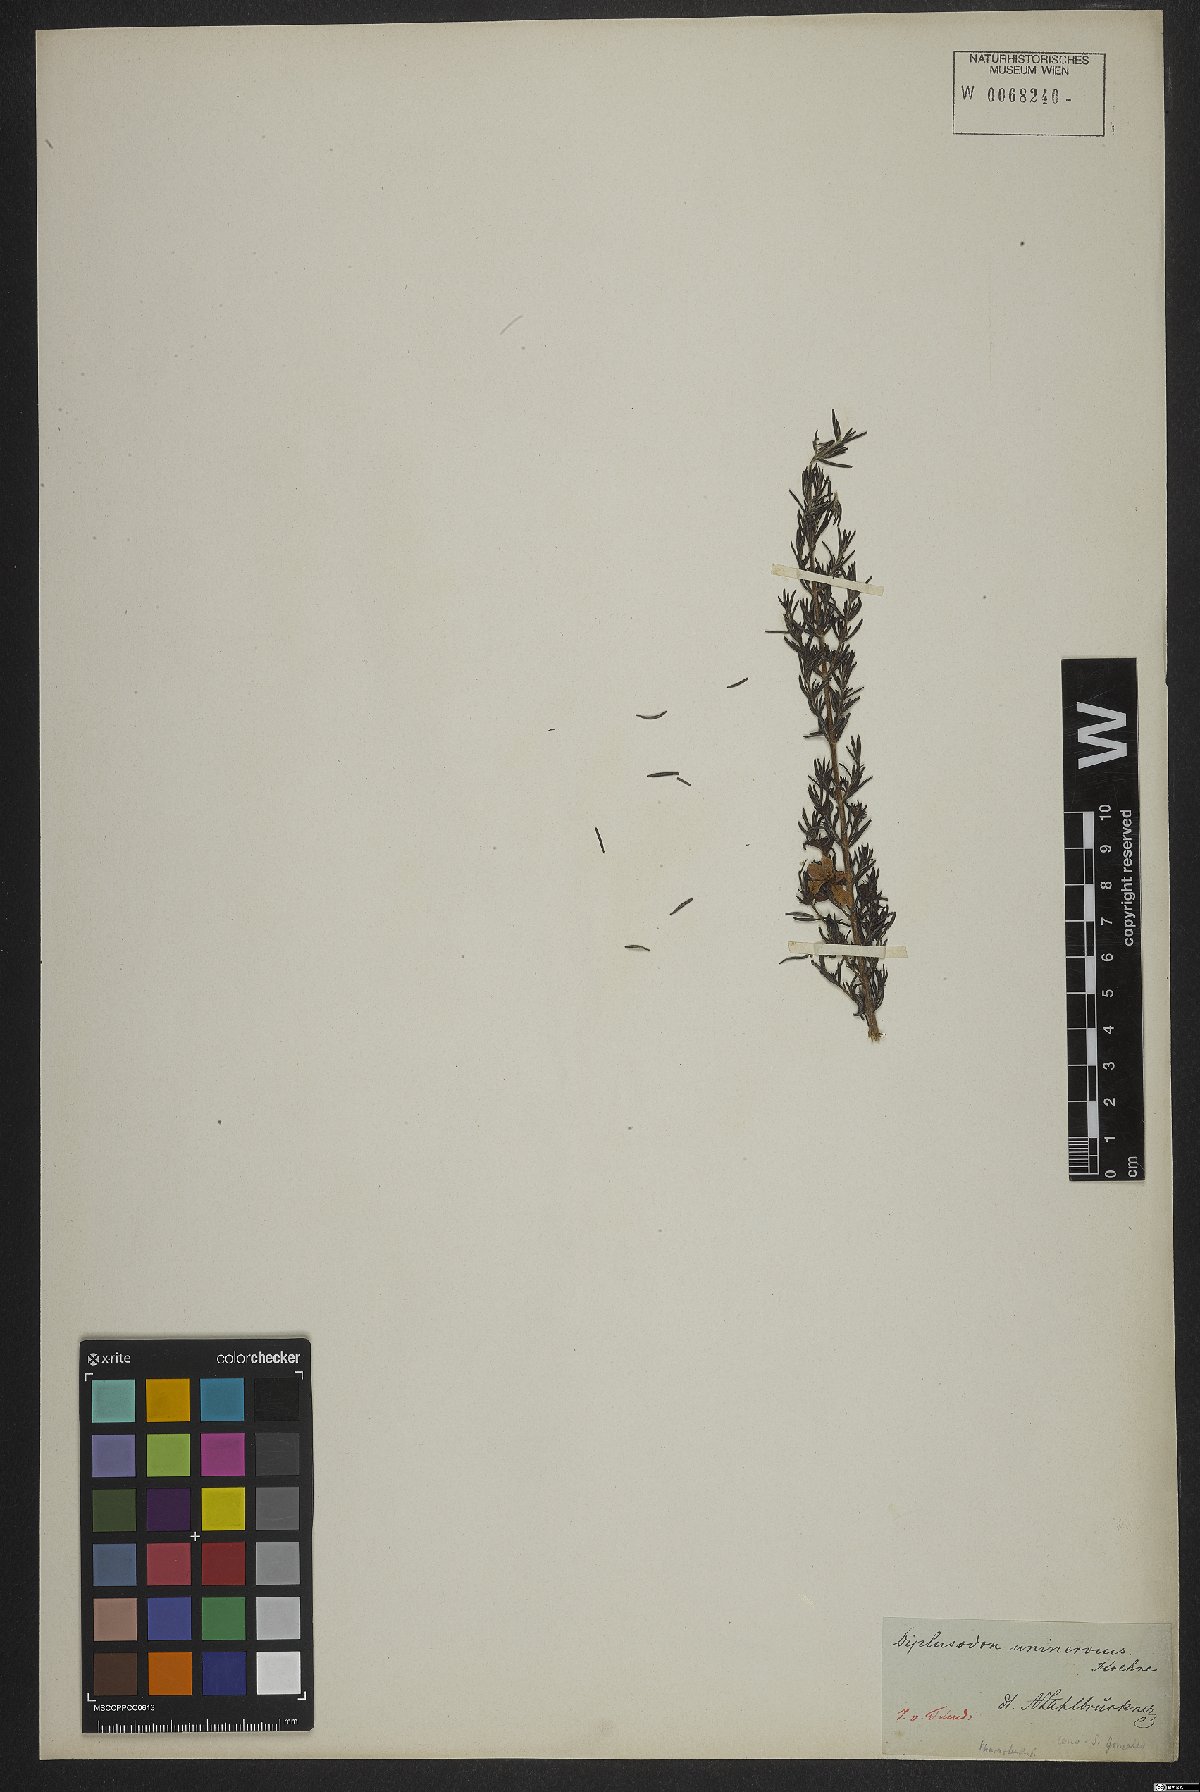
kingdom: Plantae
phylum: Tracheophyta
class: Magnoliopsida
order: Myrtales
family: Lythraceae
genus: Diplusodon
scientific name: Diplusodon uninervius
